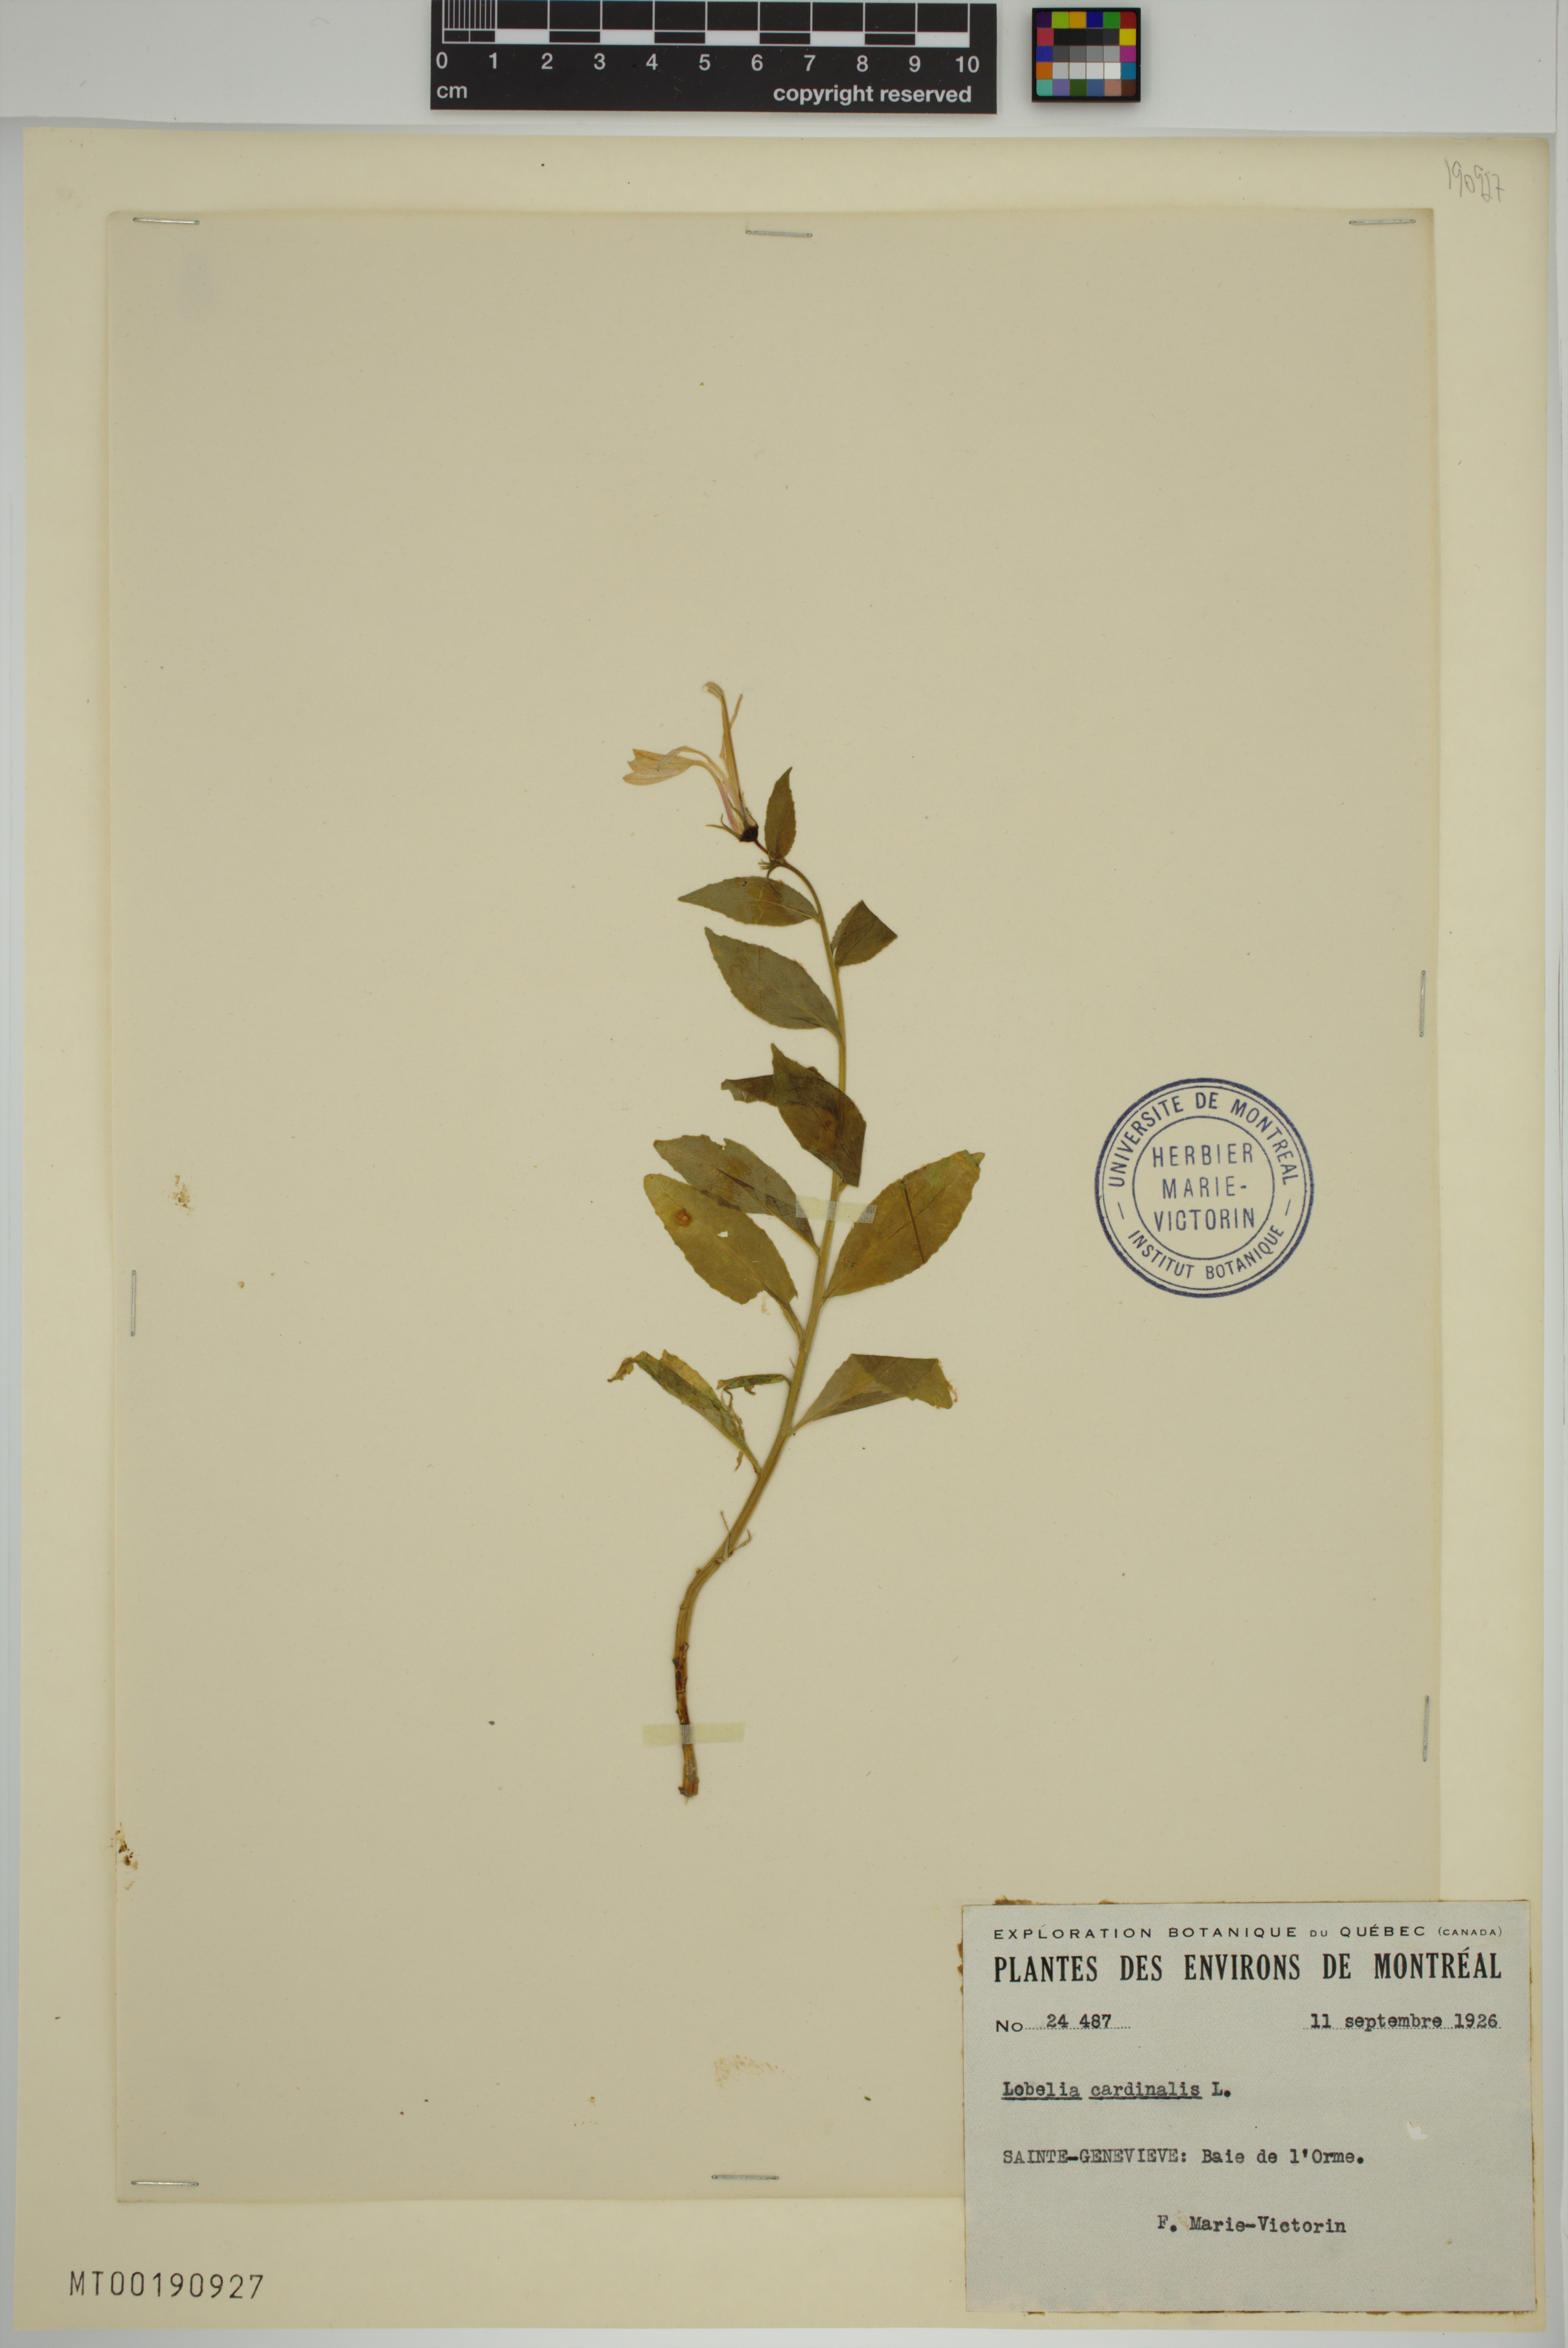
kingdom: Plantae
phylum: Tracheophyta
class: Magnoliopsida
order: Asterales
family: Campanulaceae
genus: Lobelia
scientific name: Lobelia cardinalis
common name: Cardinal flower
